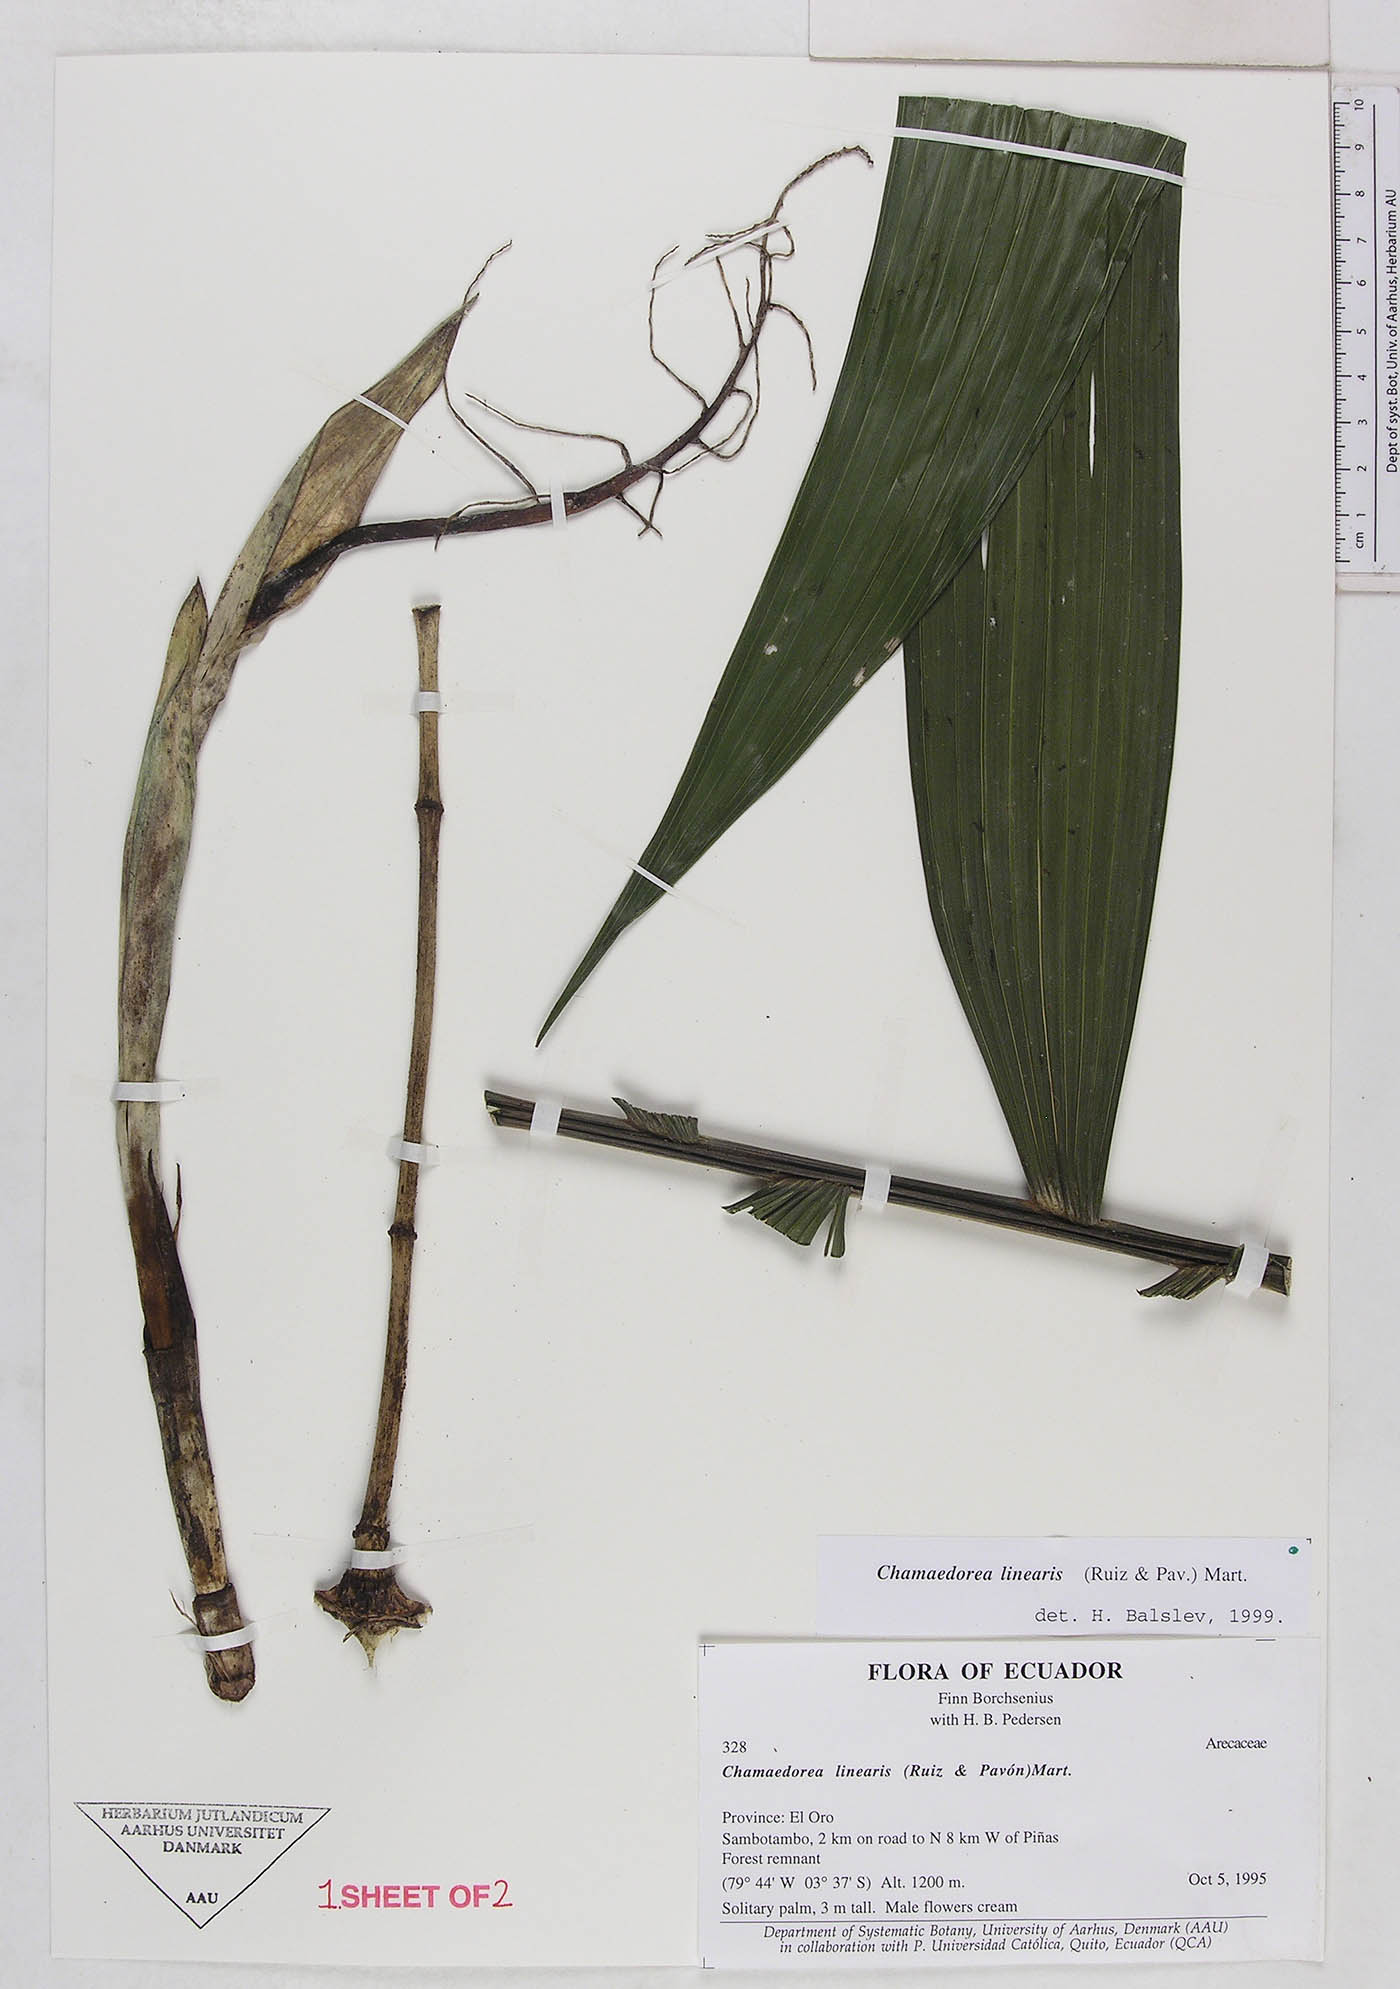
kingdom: Plantae
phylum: Tracheophyta
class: Liliopsida
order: Arecales
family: Arecaceae
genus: Chamaedorea
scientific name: Chamaedorea linearis
